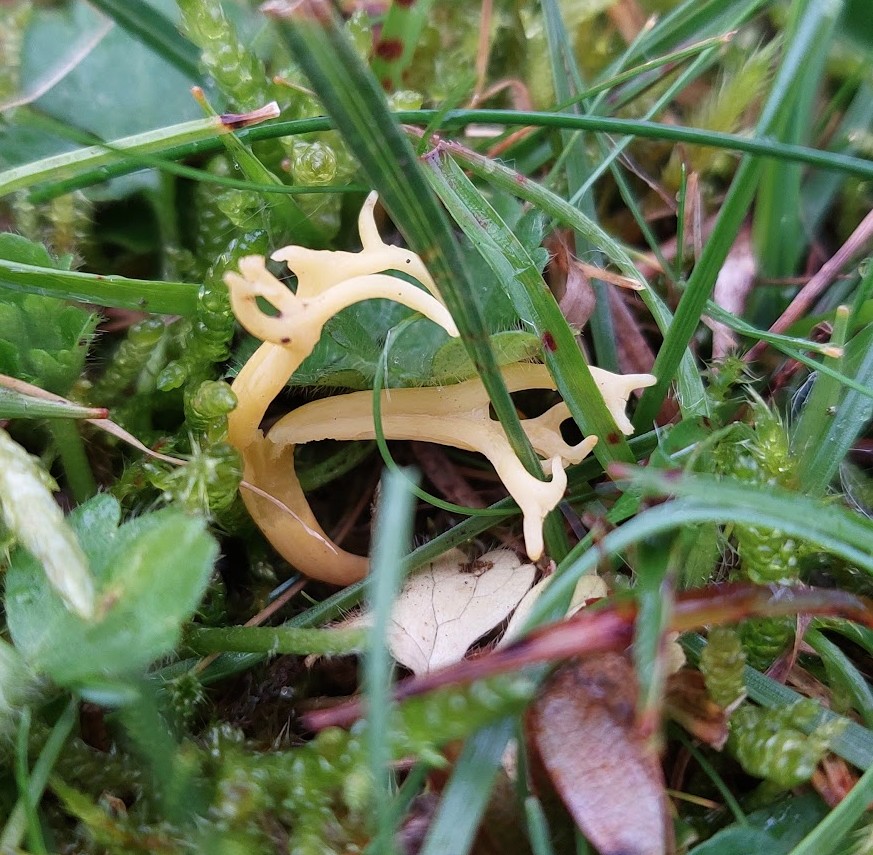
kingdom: Fungi
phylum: Basidiomycota
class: Agaricomycetes
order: Agaricales
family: Clavariaceae
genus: Clavulinopsis
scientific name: Clavulinopsis corniculata
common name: eng-køllesvamp
